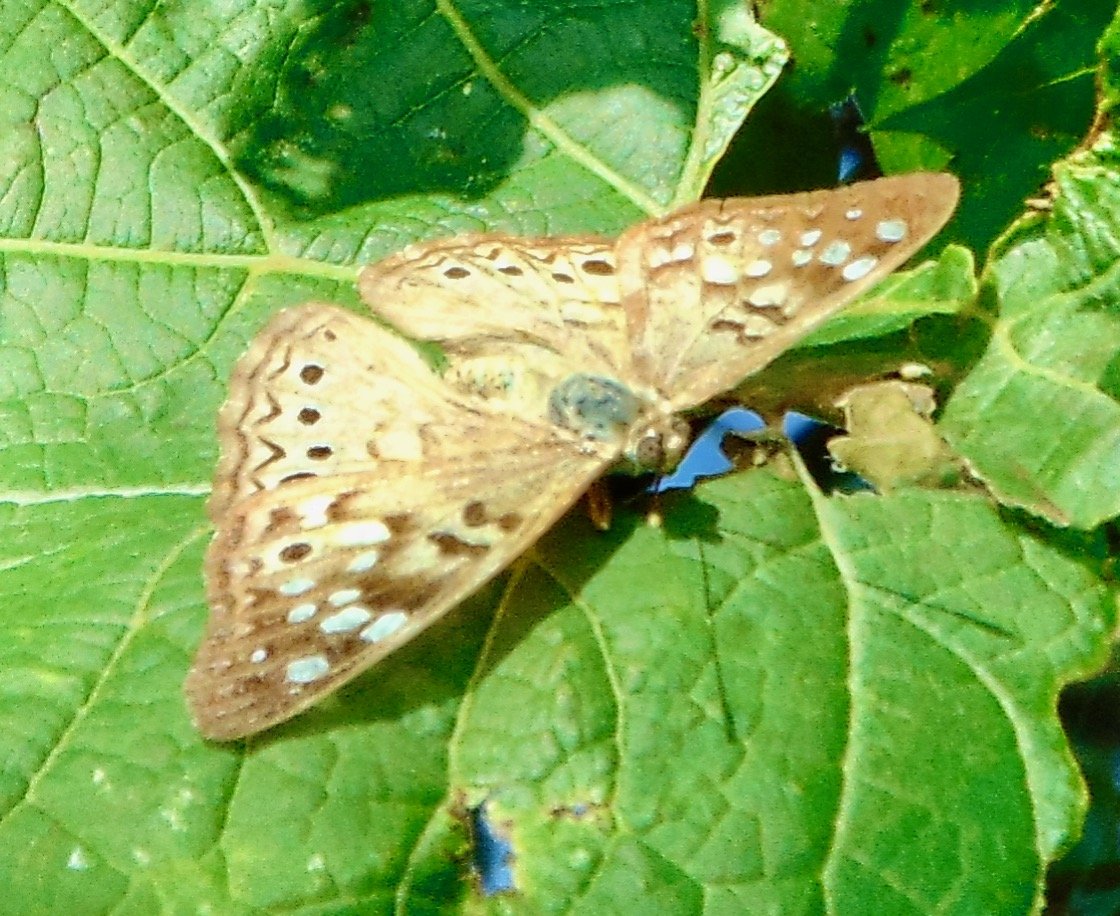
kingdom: Animalia
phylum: Arthropoda
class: Insecta
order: Lepidoptera
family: Nymphalidae
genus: Asterocampa
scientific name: Asterocampa celtis
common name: Hackberry Emperor
